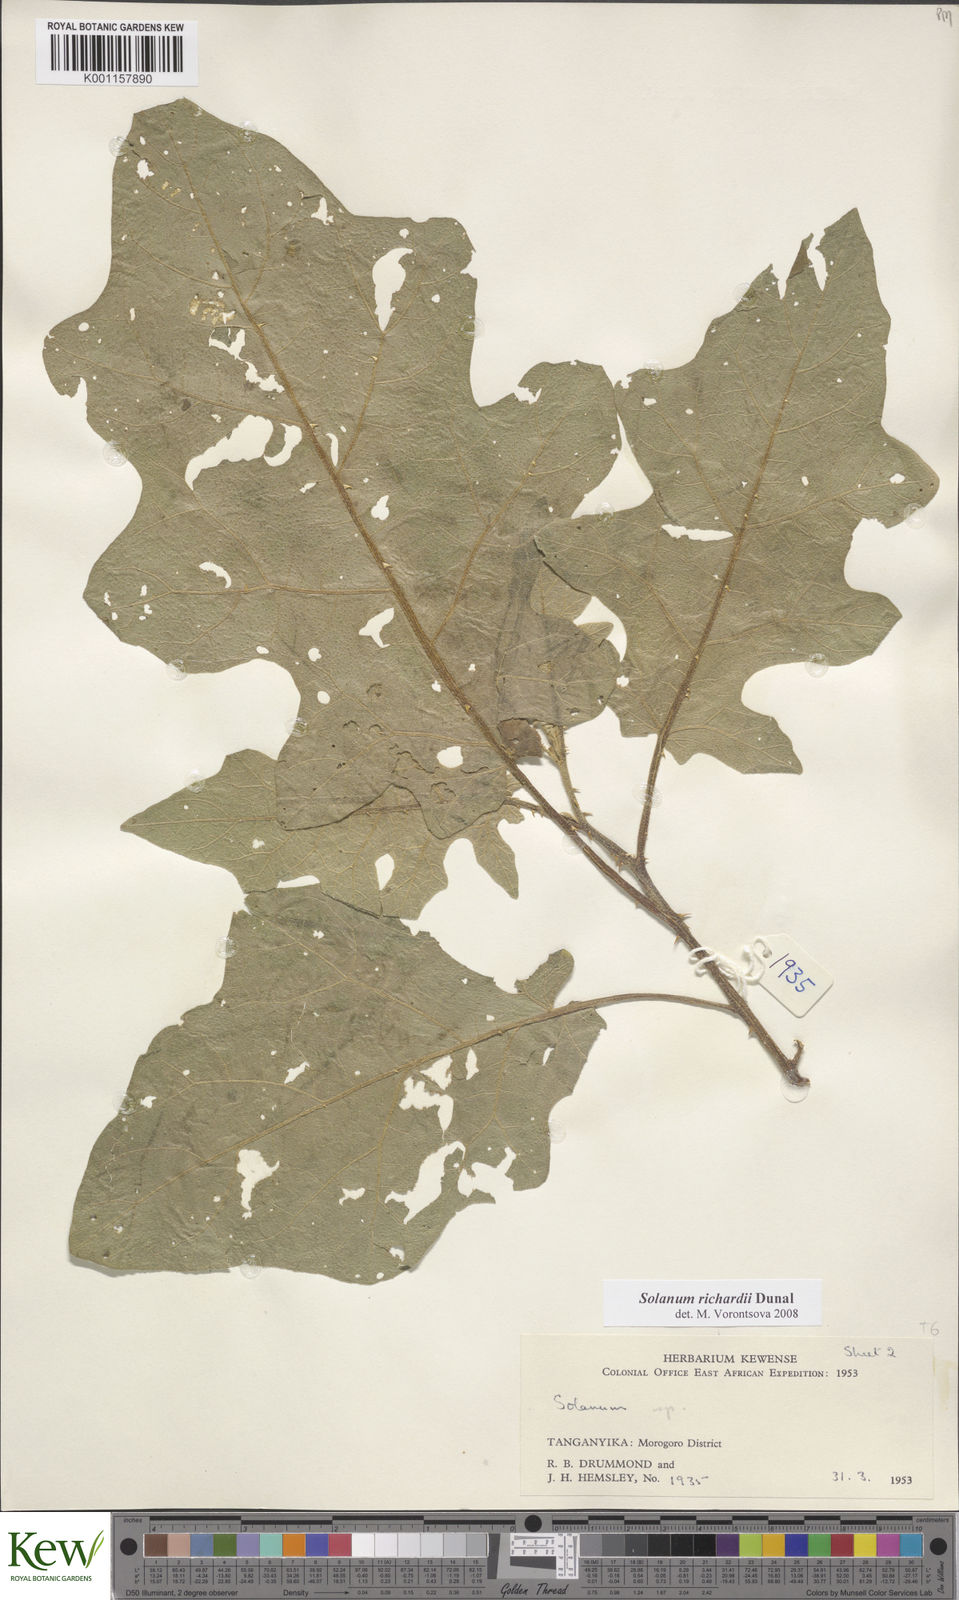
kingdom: Plantae
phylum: Tracheophyta
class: Magnoliopsida
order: Solanales
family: Solanaceae
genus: Solanum
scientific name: Solanum
